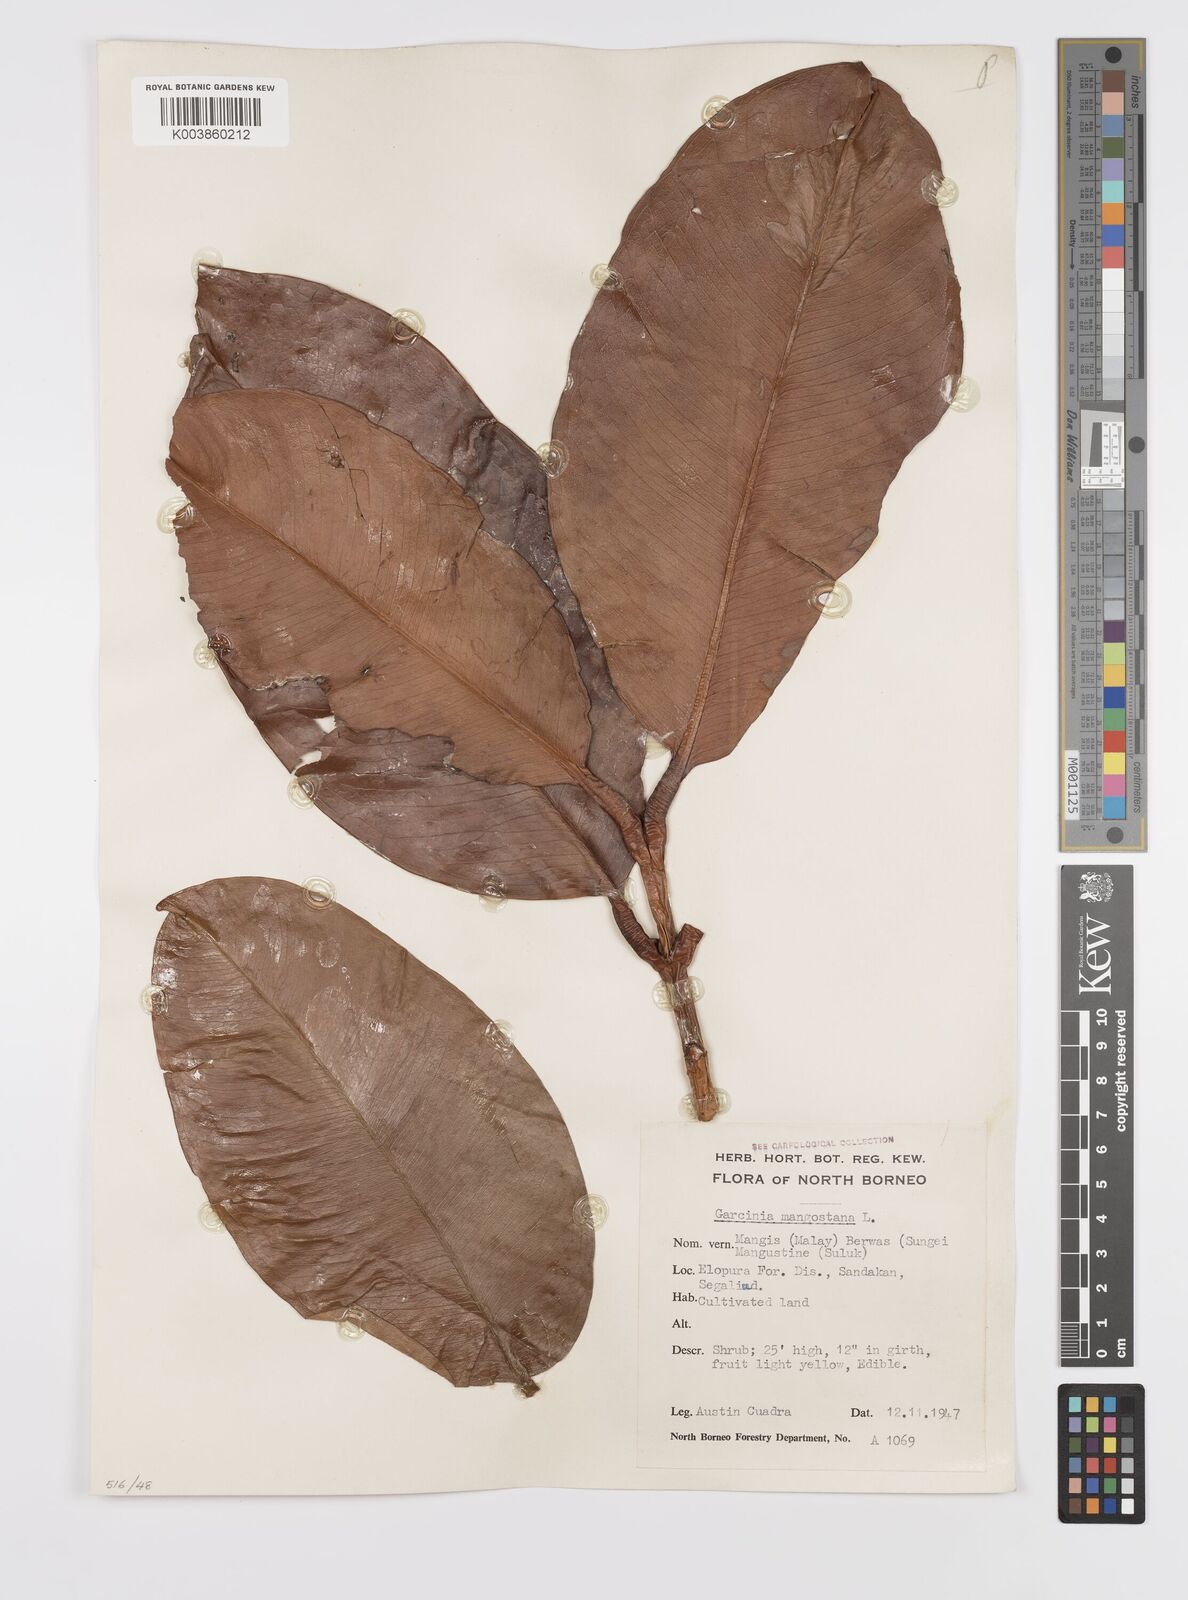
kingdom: Plantae
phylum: Tracheophyta
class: Magnoliopsida
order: Malpighiales
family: Clusiaceae
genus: Garcinia
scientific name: Garcinia mangostana
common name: Mangosteen
